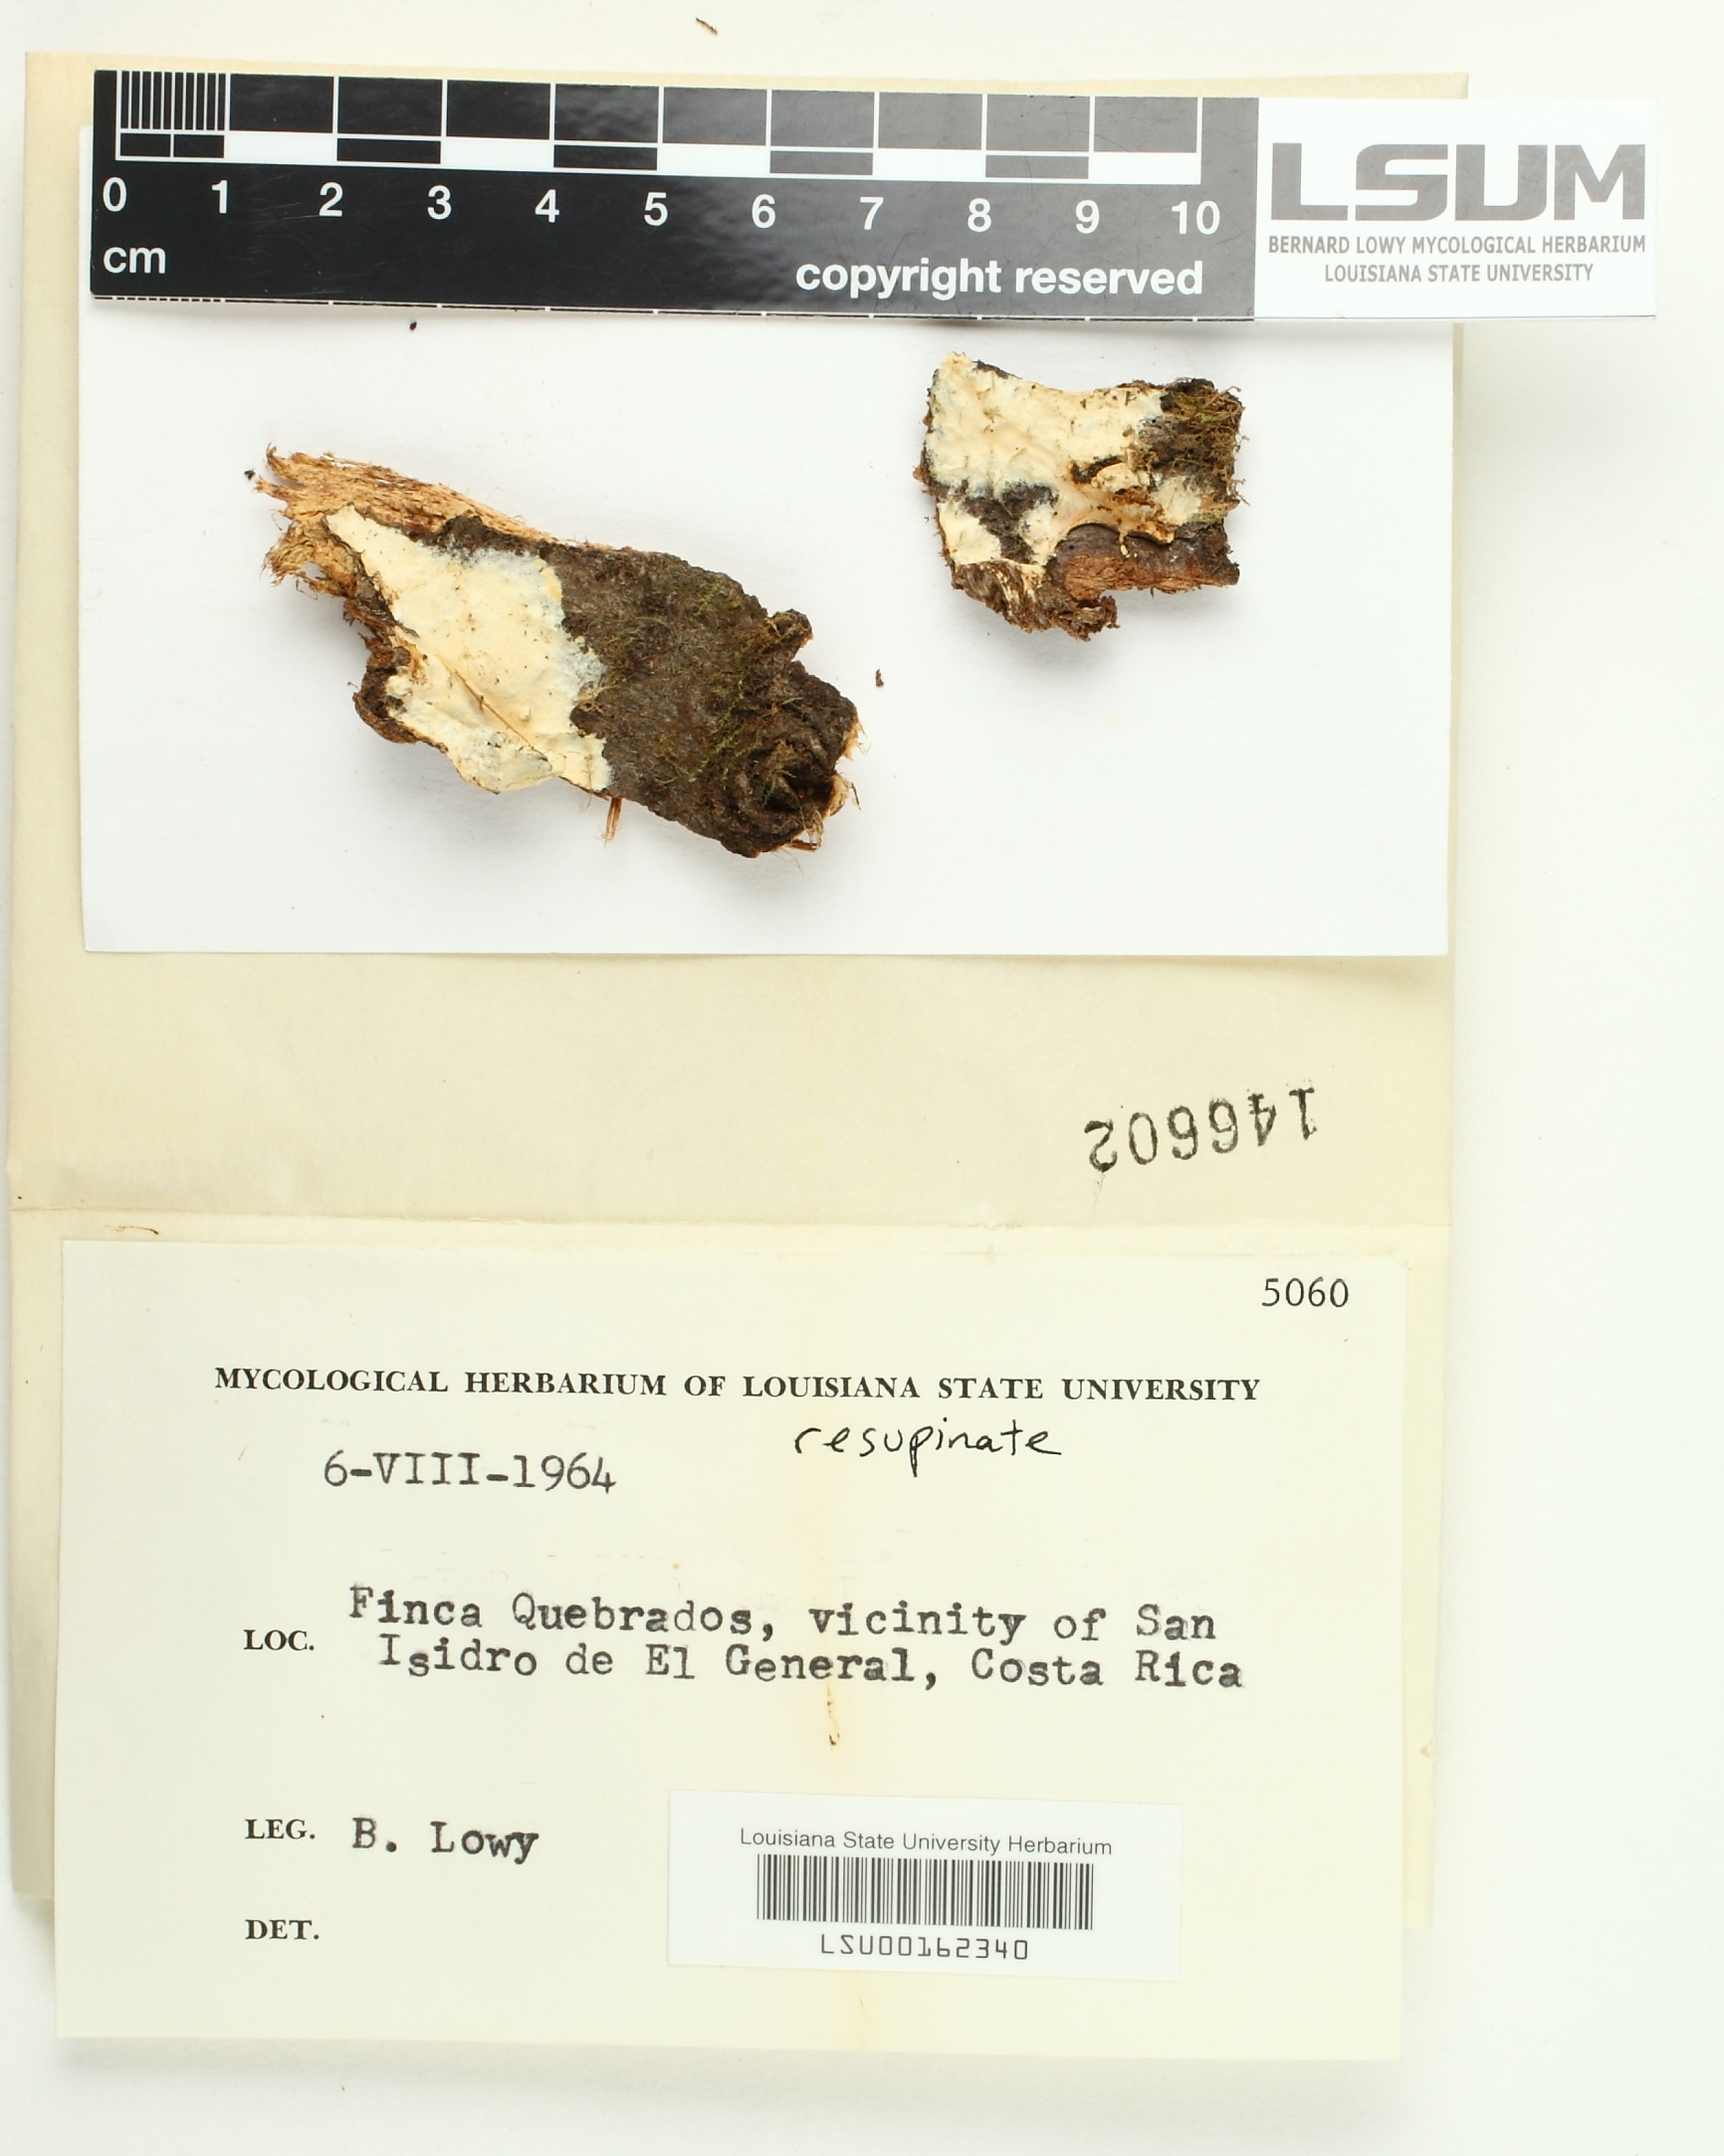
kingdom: Fungi
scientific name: Fungi
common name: Fungi
